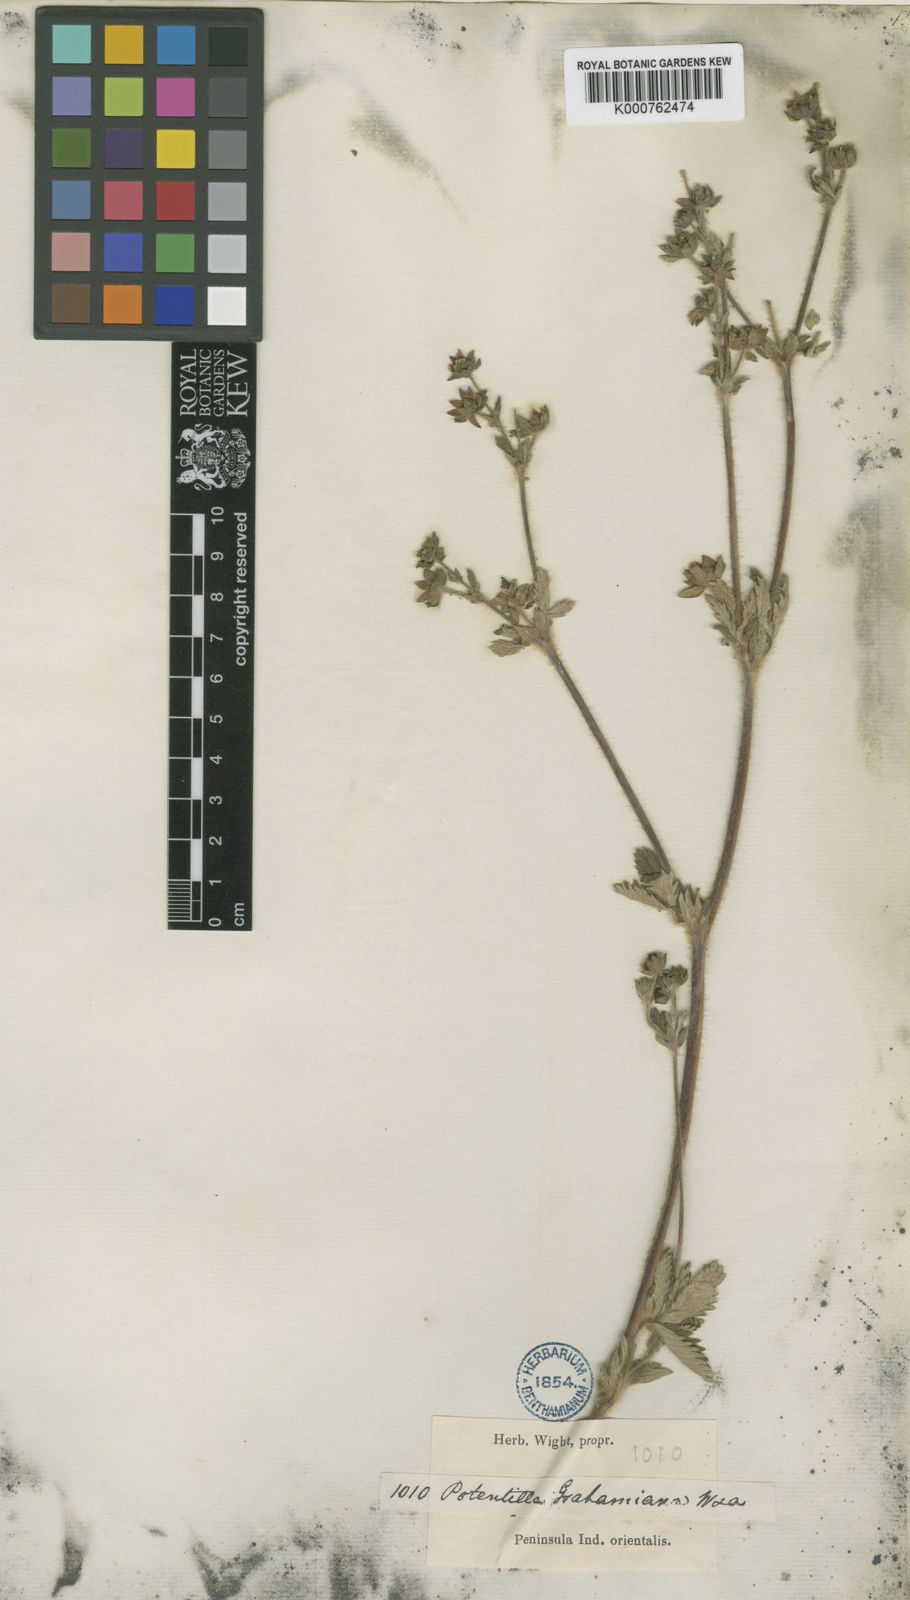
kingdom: Plantae
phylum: Tracheophyta
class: Magnoliopsida
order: Rosales
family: Rosaceae
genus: Potentilla
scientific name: Potentilla sundaica
